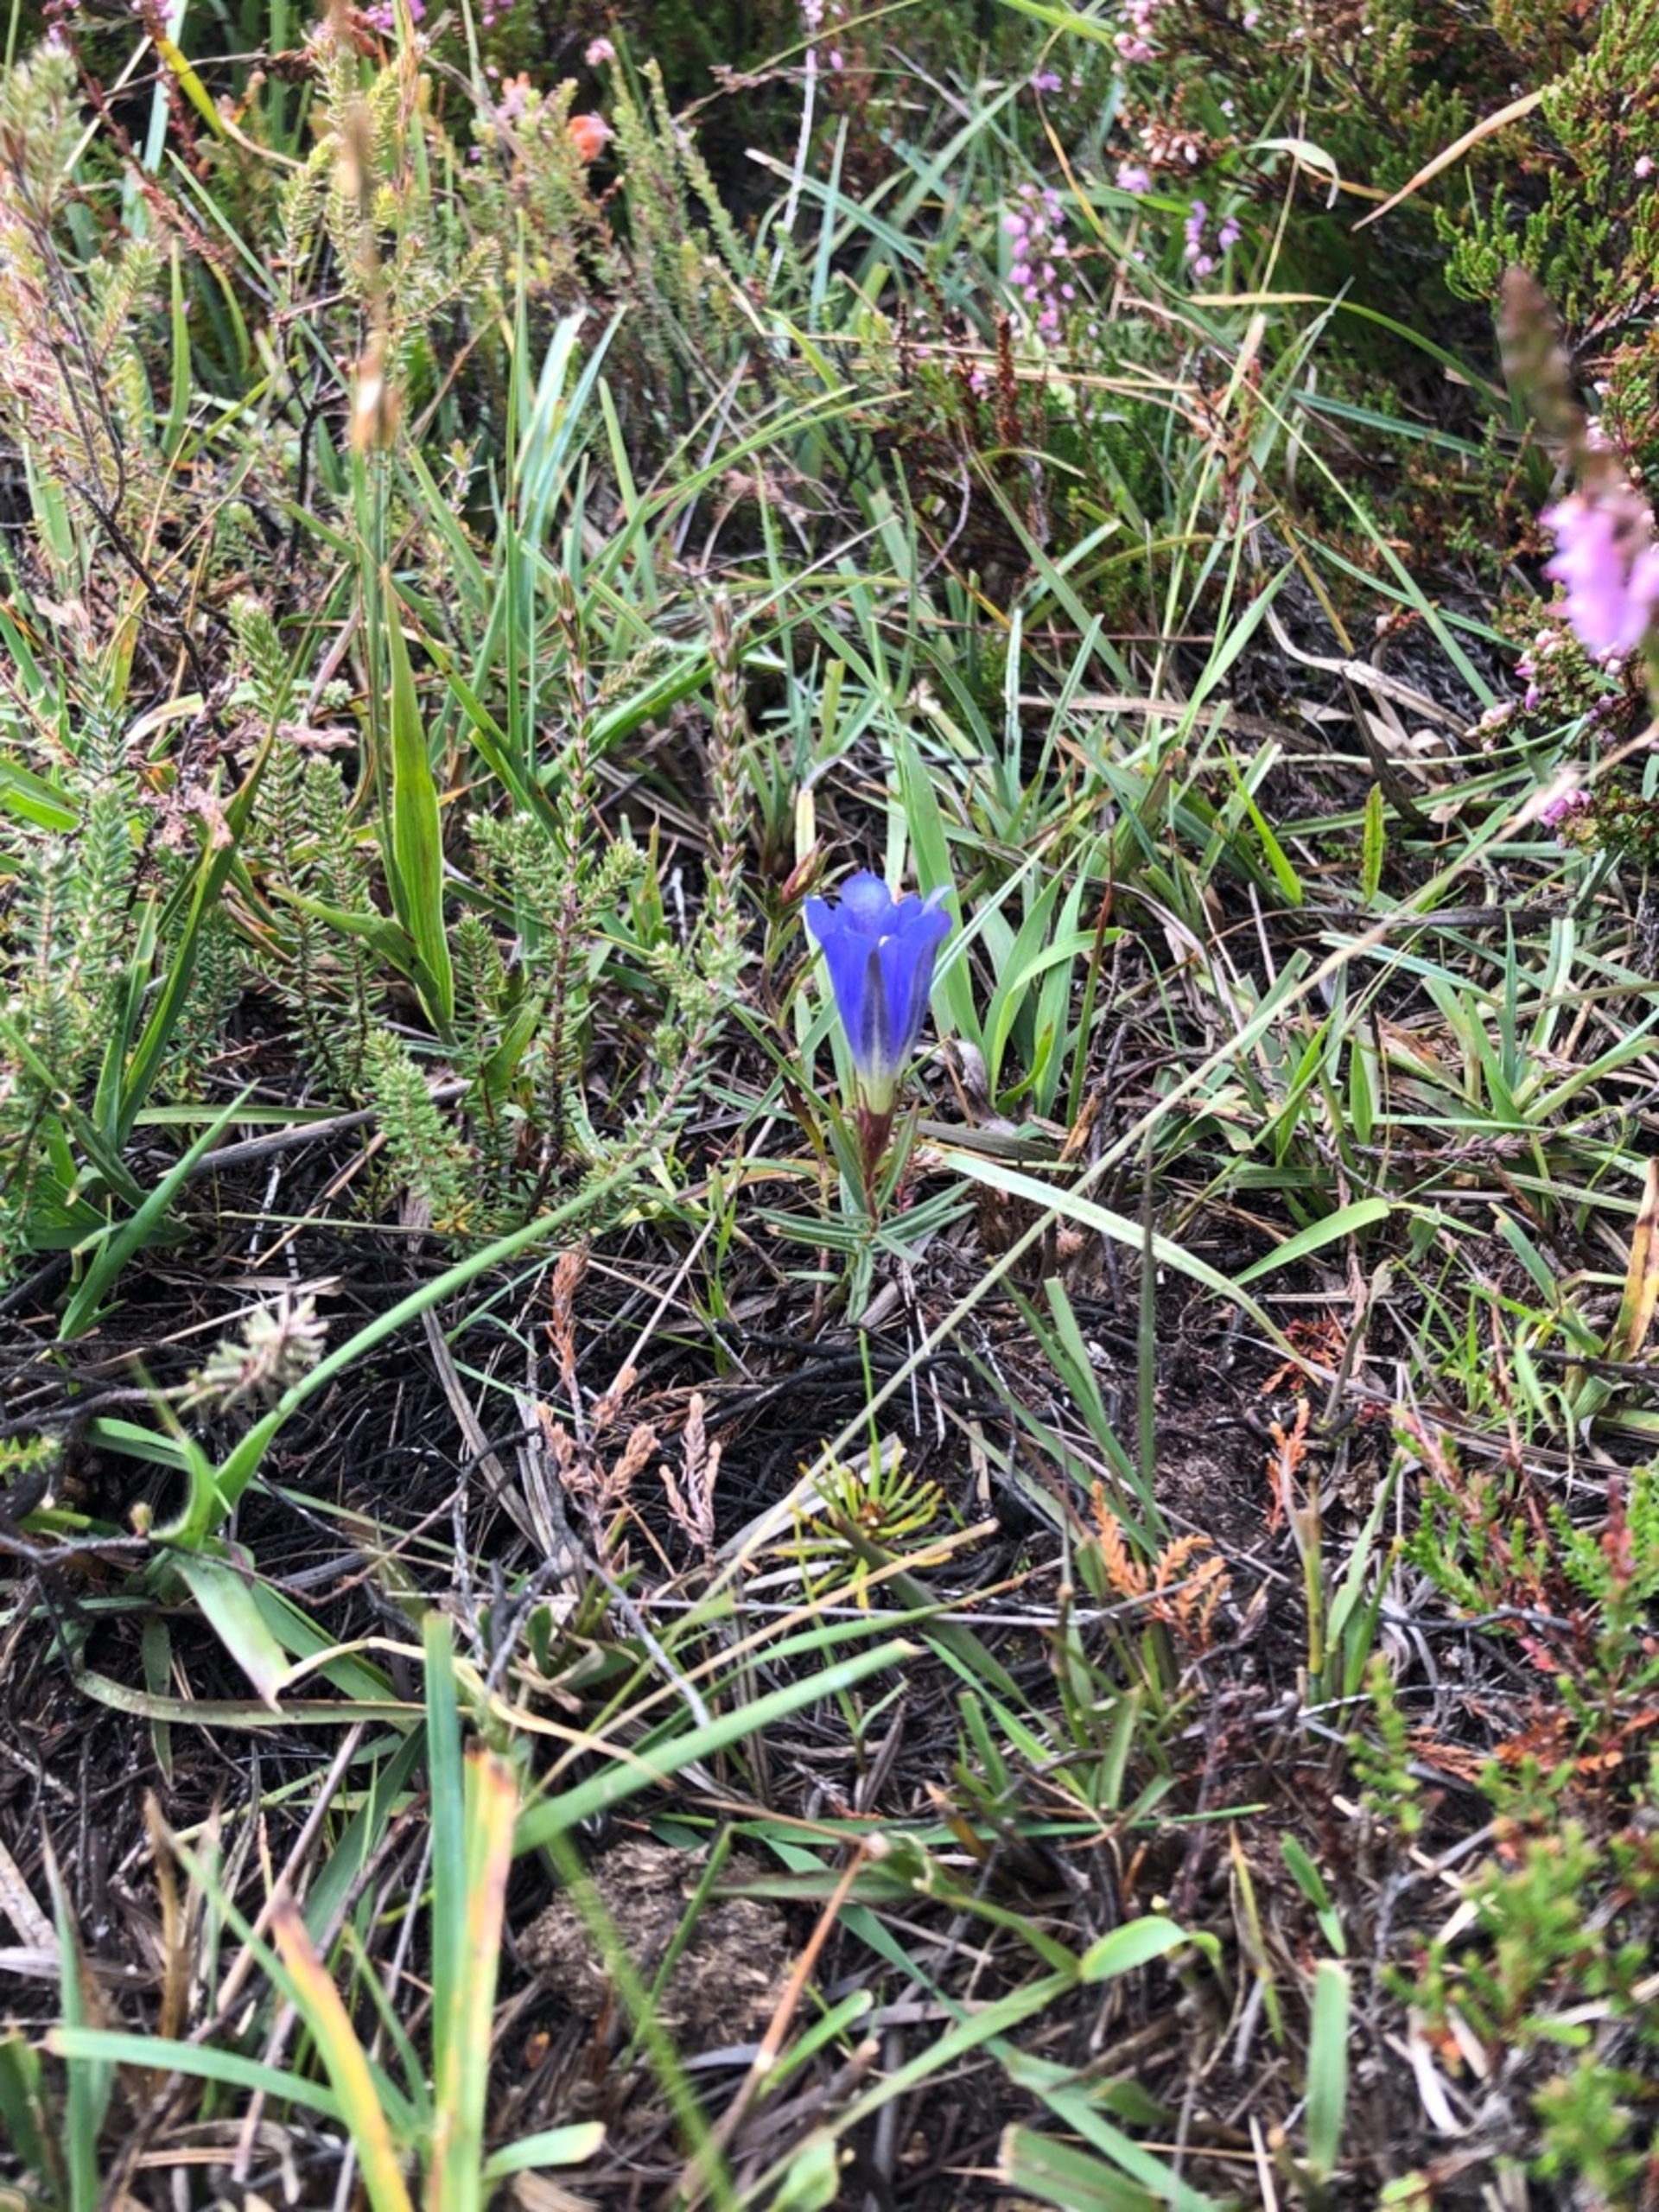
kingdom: Plantae
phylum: Tracheophyta
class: Magnoliopsida
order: Gentianales
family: Gentianaceae
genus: Gentiana
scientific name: Gentiana pneumonanthe
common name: Klokke-ensian
